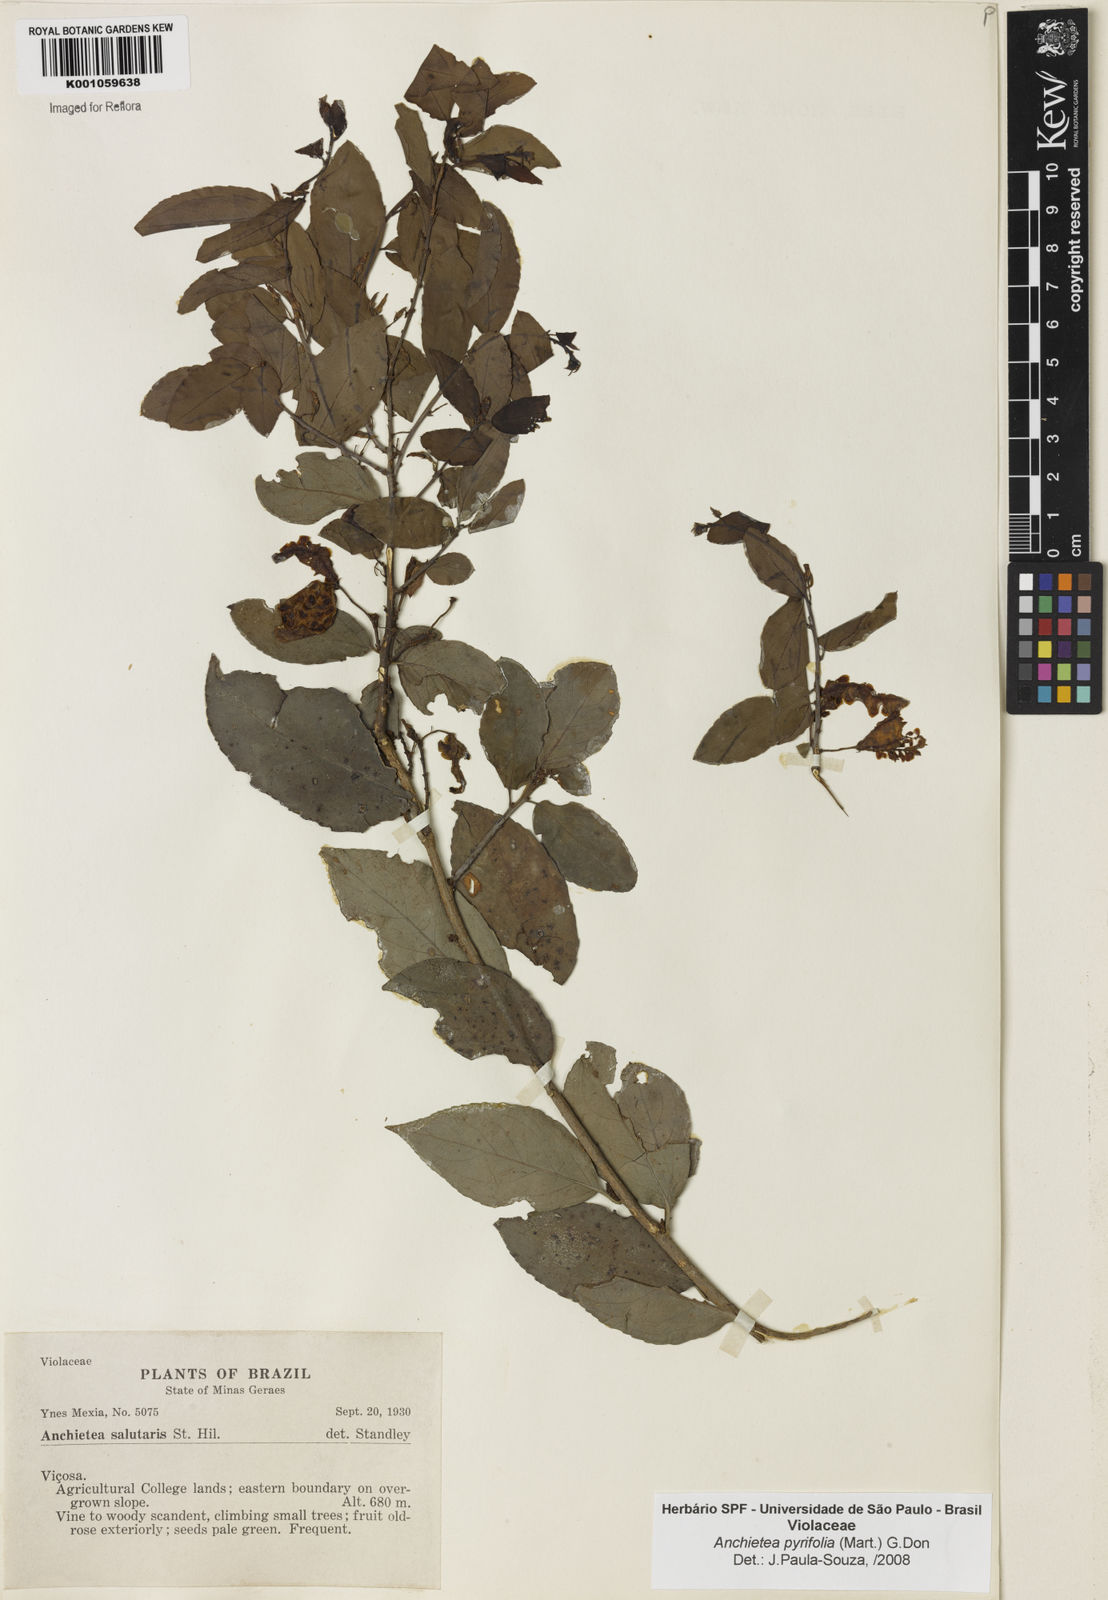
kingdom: Plantae
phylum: Tracheophyta
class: Magnoliopsida
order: Malpighiales
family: Violaceae
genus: Anchietea
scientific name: Anchietea pyrifolia
